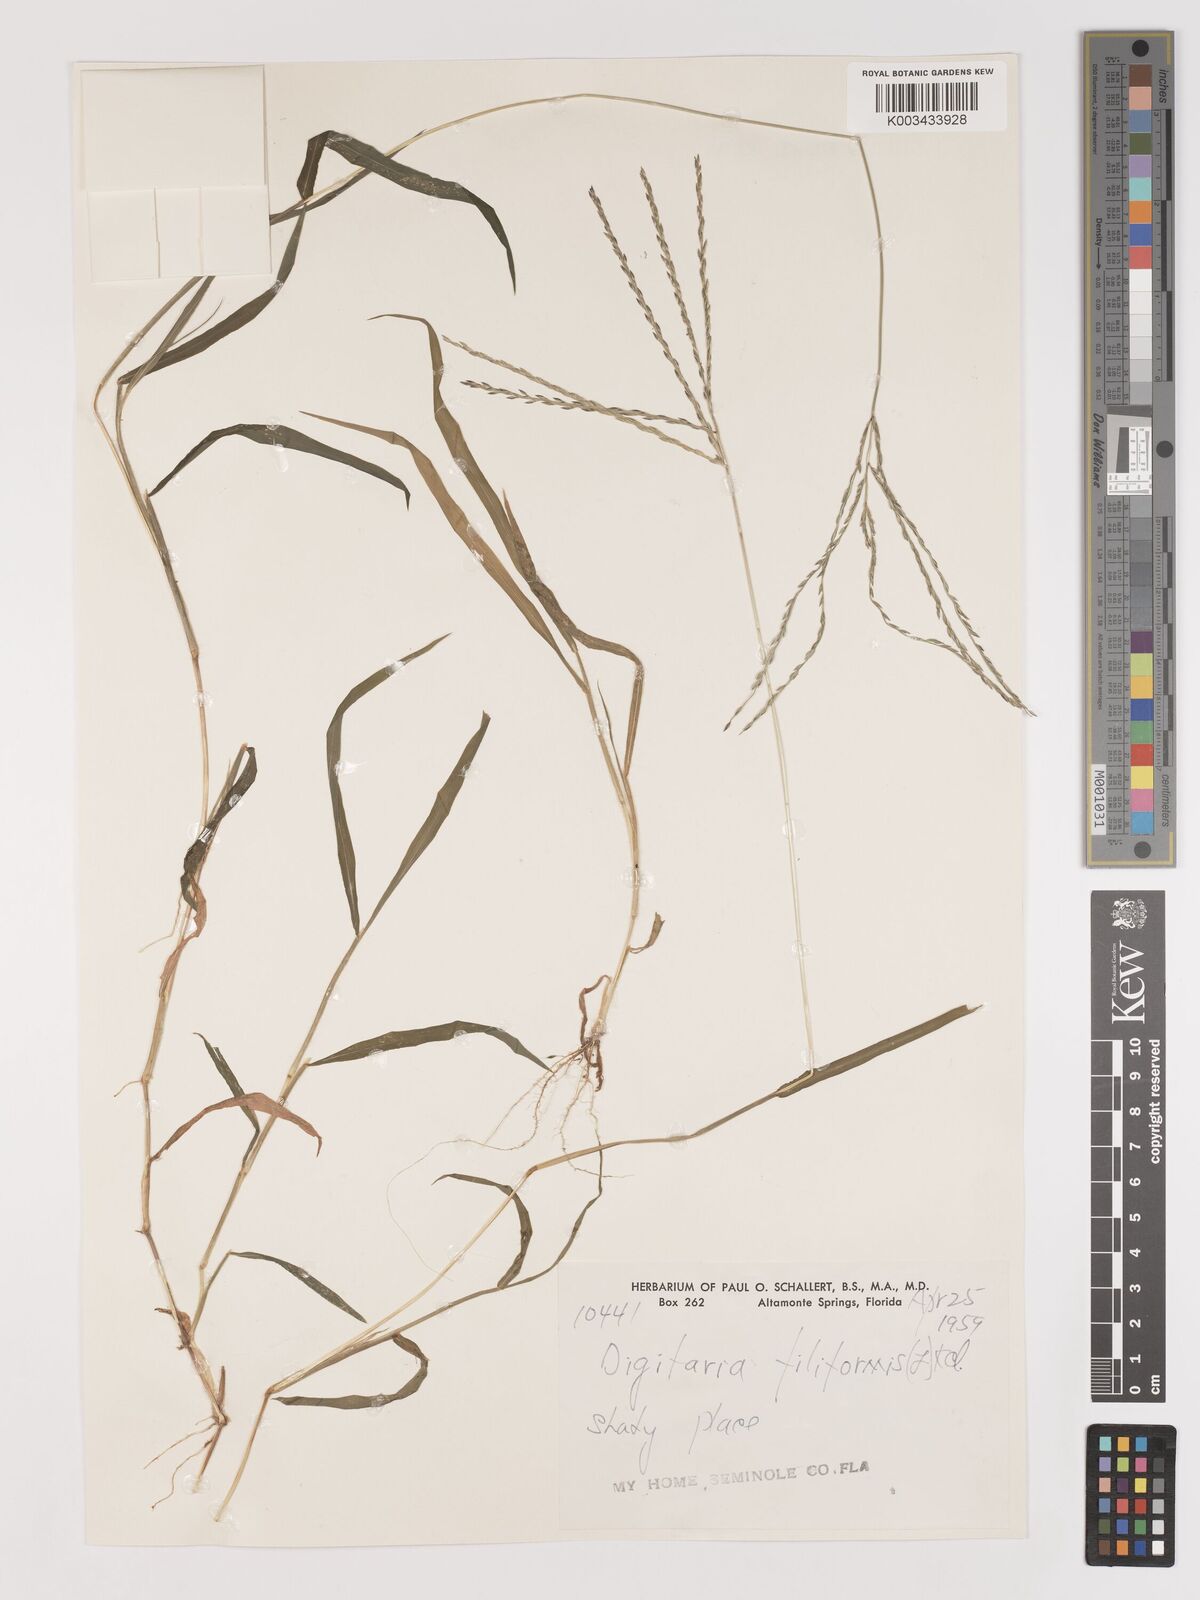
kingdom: Plantae
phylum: Tracheophyta
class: Liliopsida
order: Poales
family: Poaceae
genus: Digitaria
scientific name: Digitaria filiformis
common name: Slender crabgrass
